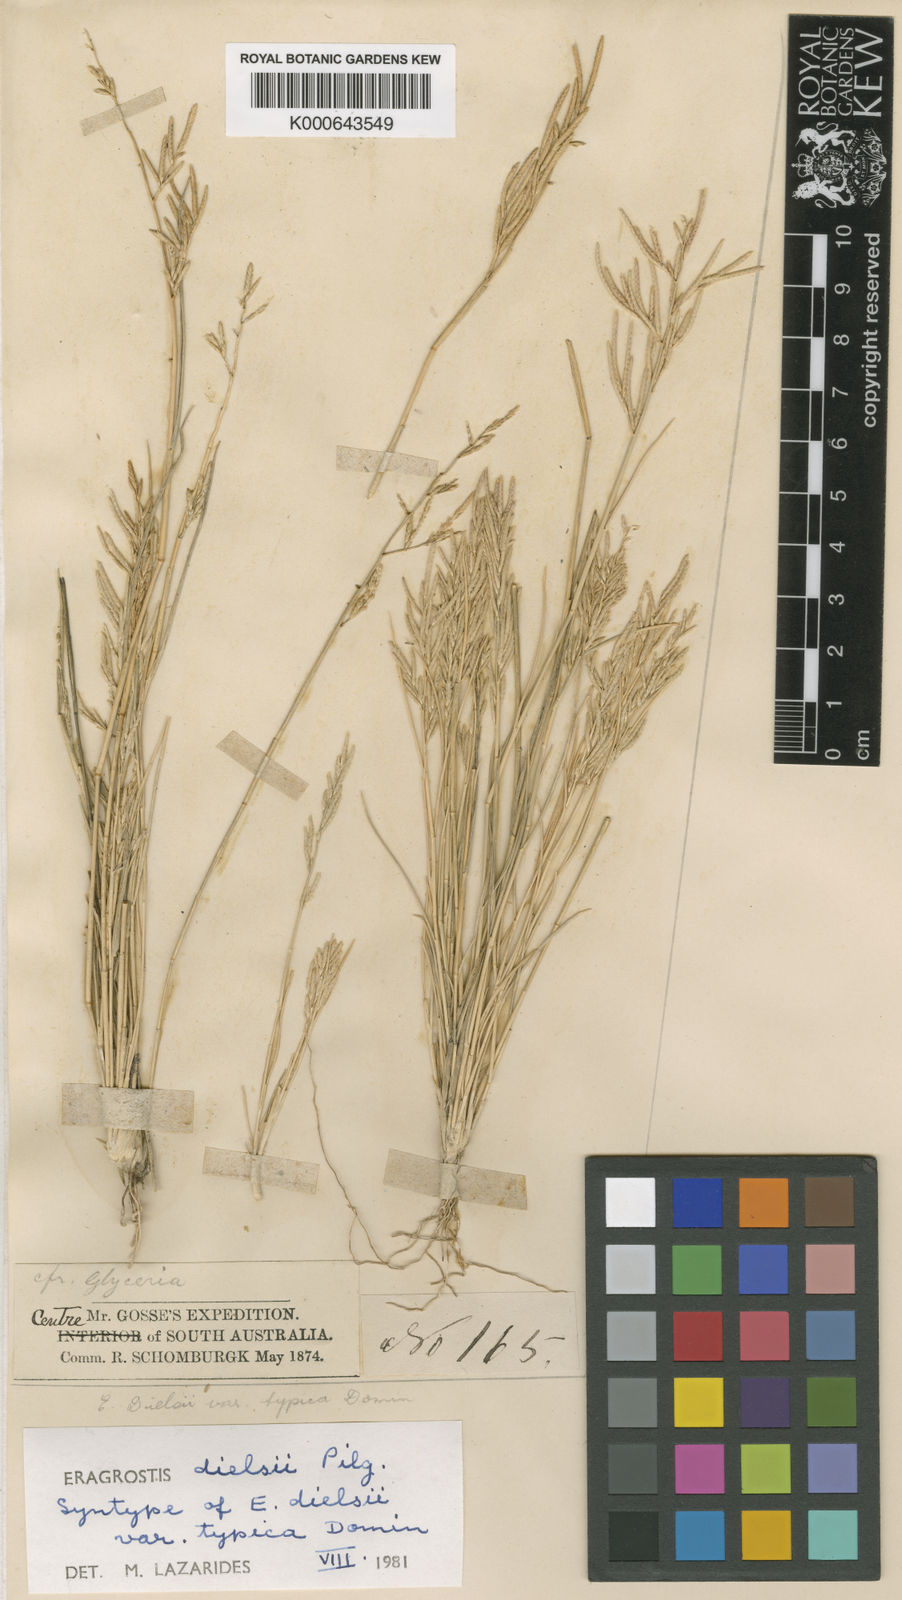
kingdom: Plantae
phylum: Tracheophyta
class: Liliopsida
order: Poales
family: Poaceae
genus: Eragrostis
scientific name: Eragrostis
